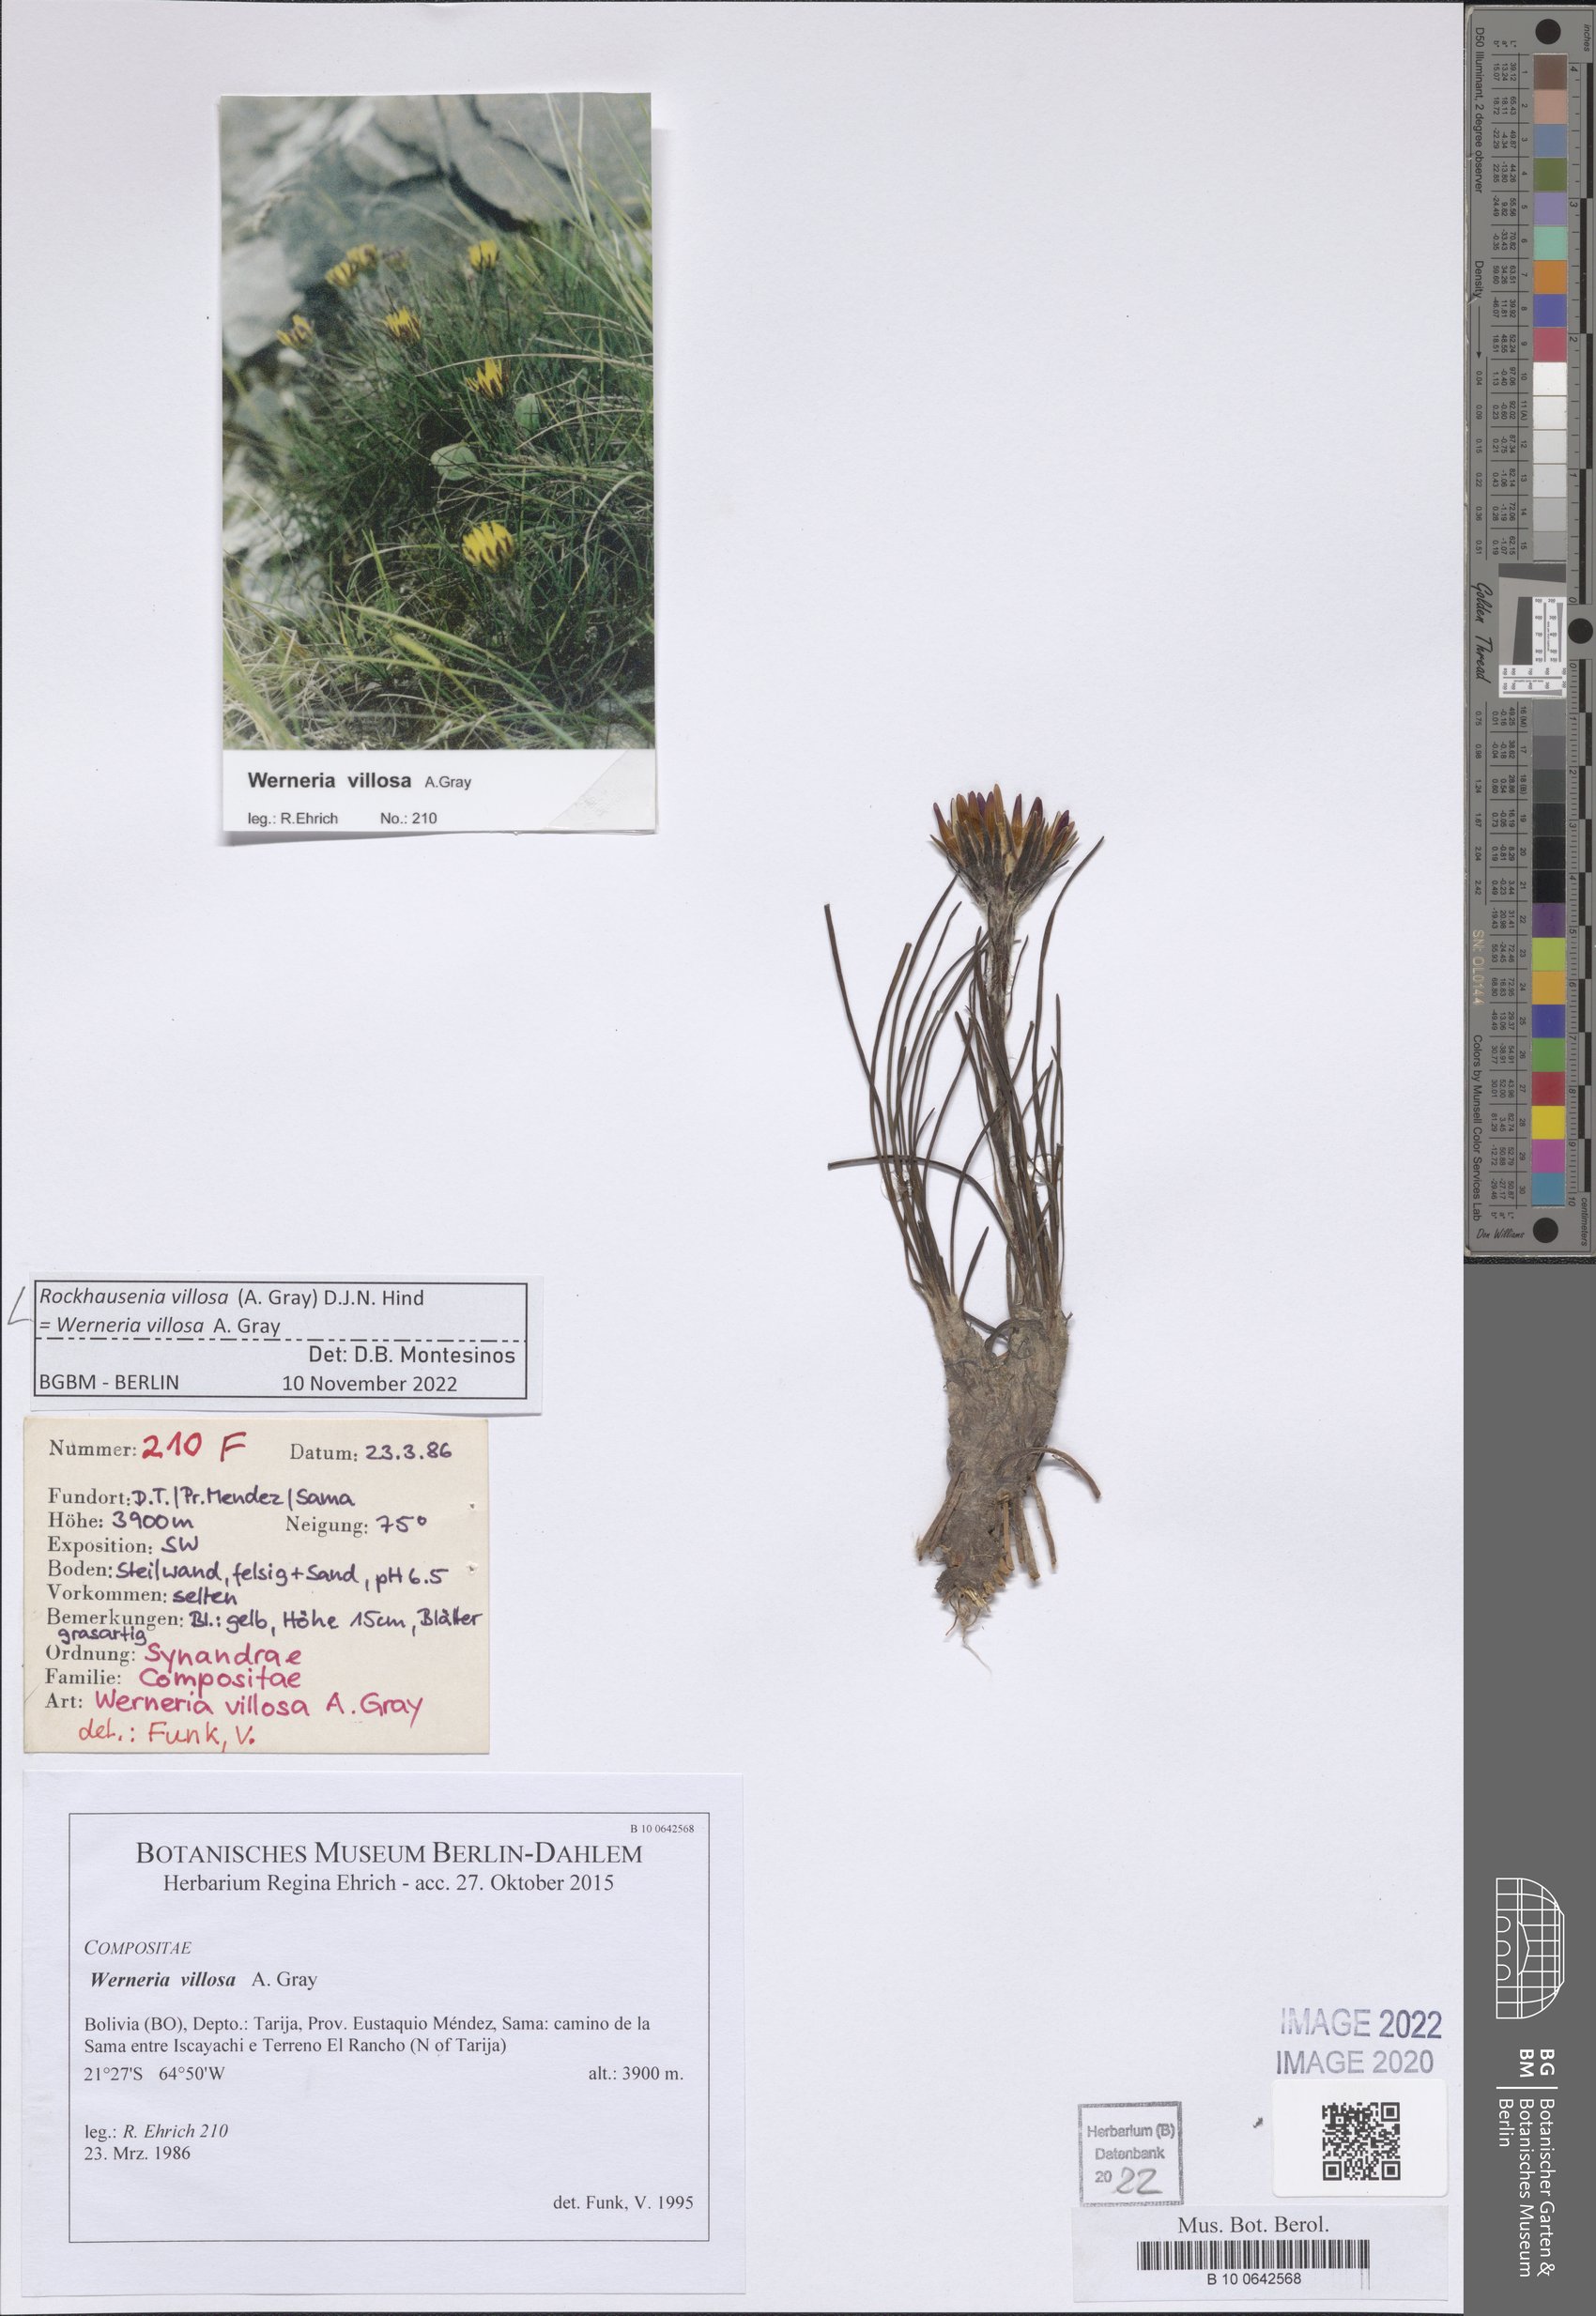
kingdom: Plantae
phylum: Tracheophyta
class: Magnoliopsida
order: Asterales
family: Asteraceae
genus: Rockhausenia
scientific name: Rockhausenia villosa
